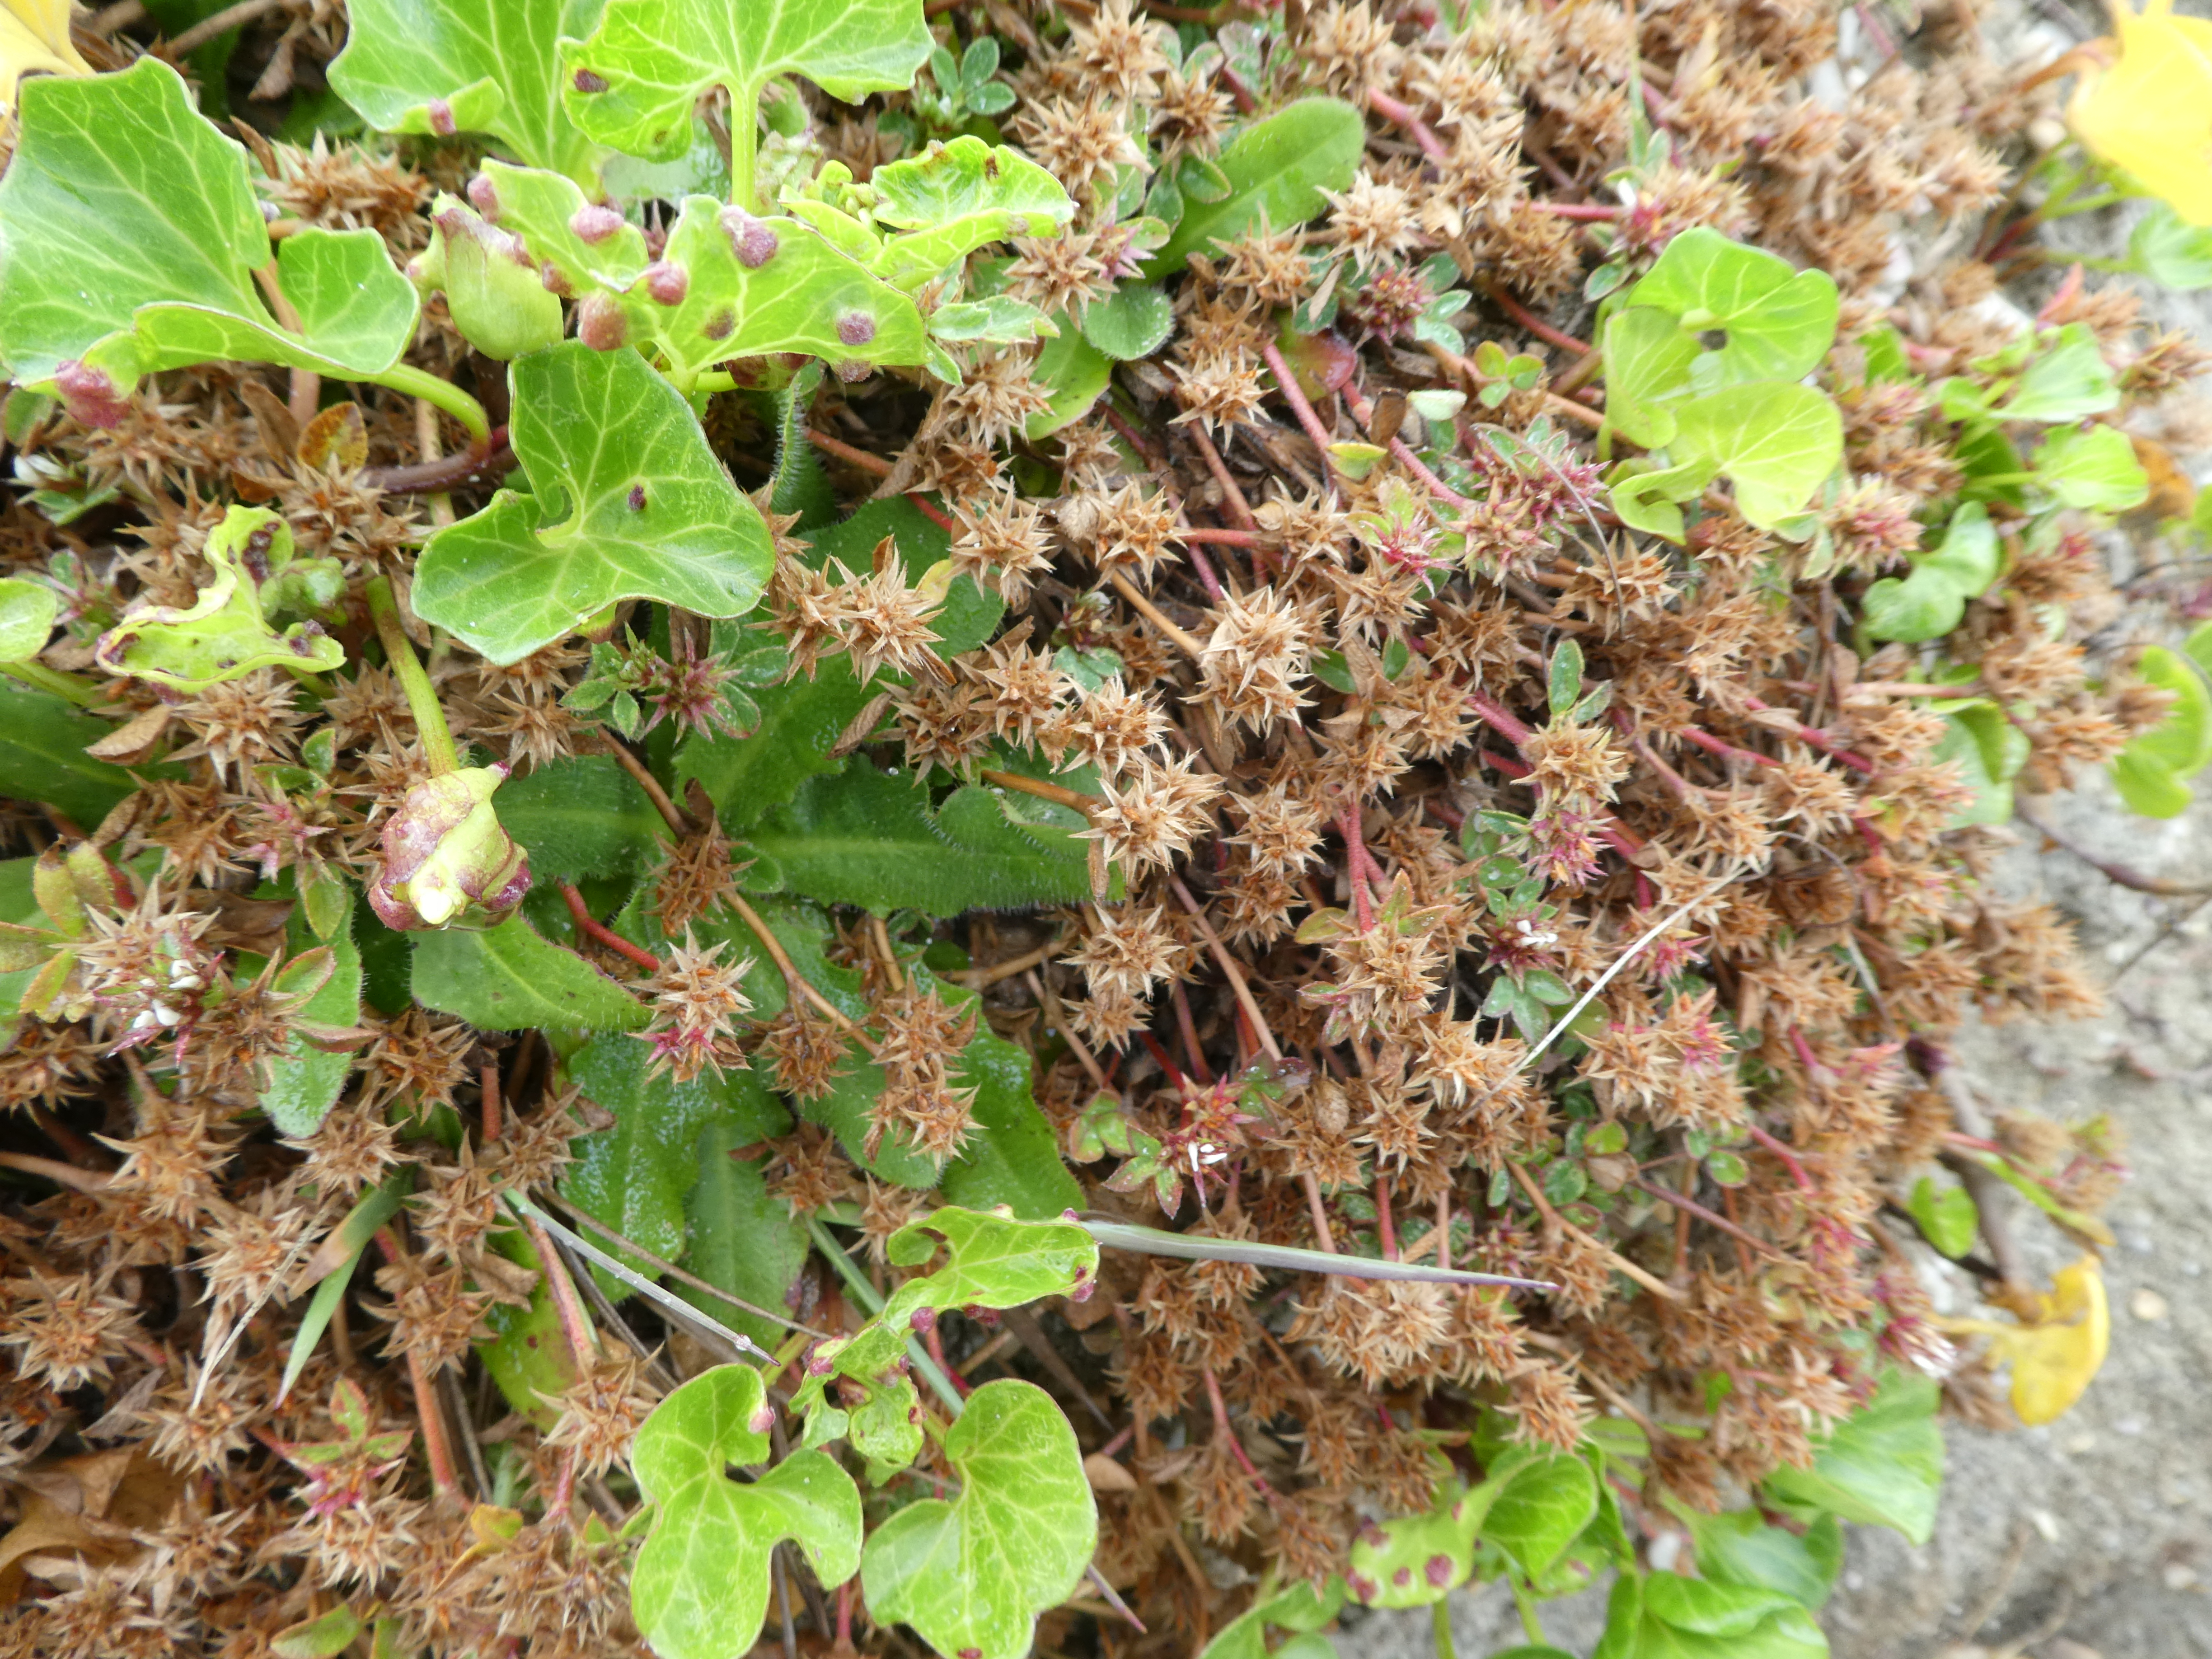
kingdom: Plantae
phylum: Tracheophyta
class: Magnoliopsida
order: Fabales
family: Fabaceae
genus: Trifolium
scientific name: Trifolium scabrum
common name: Rough clover
